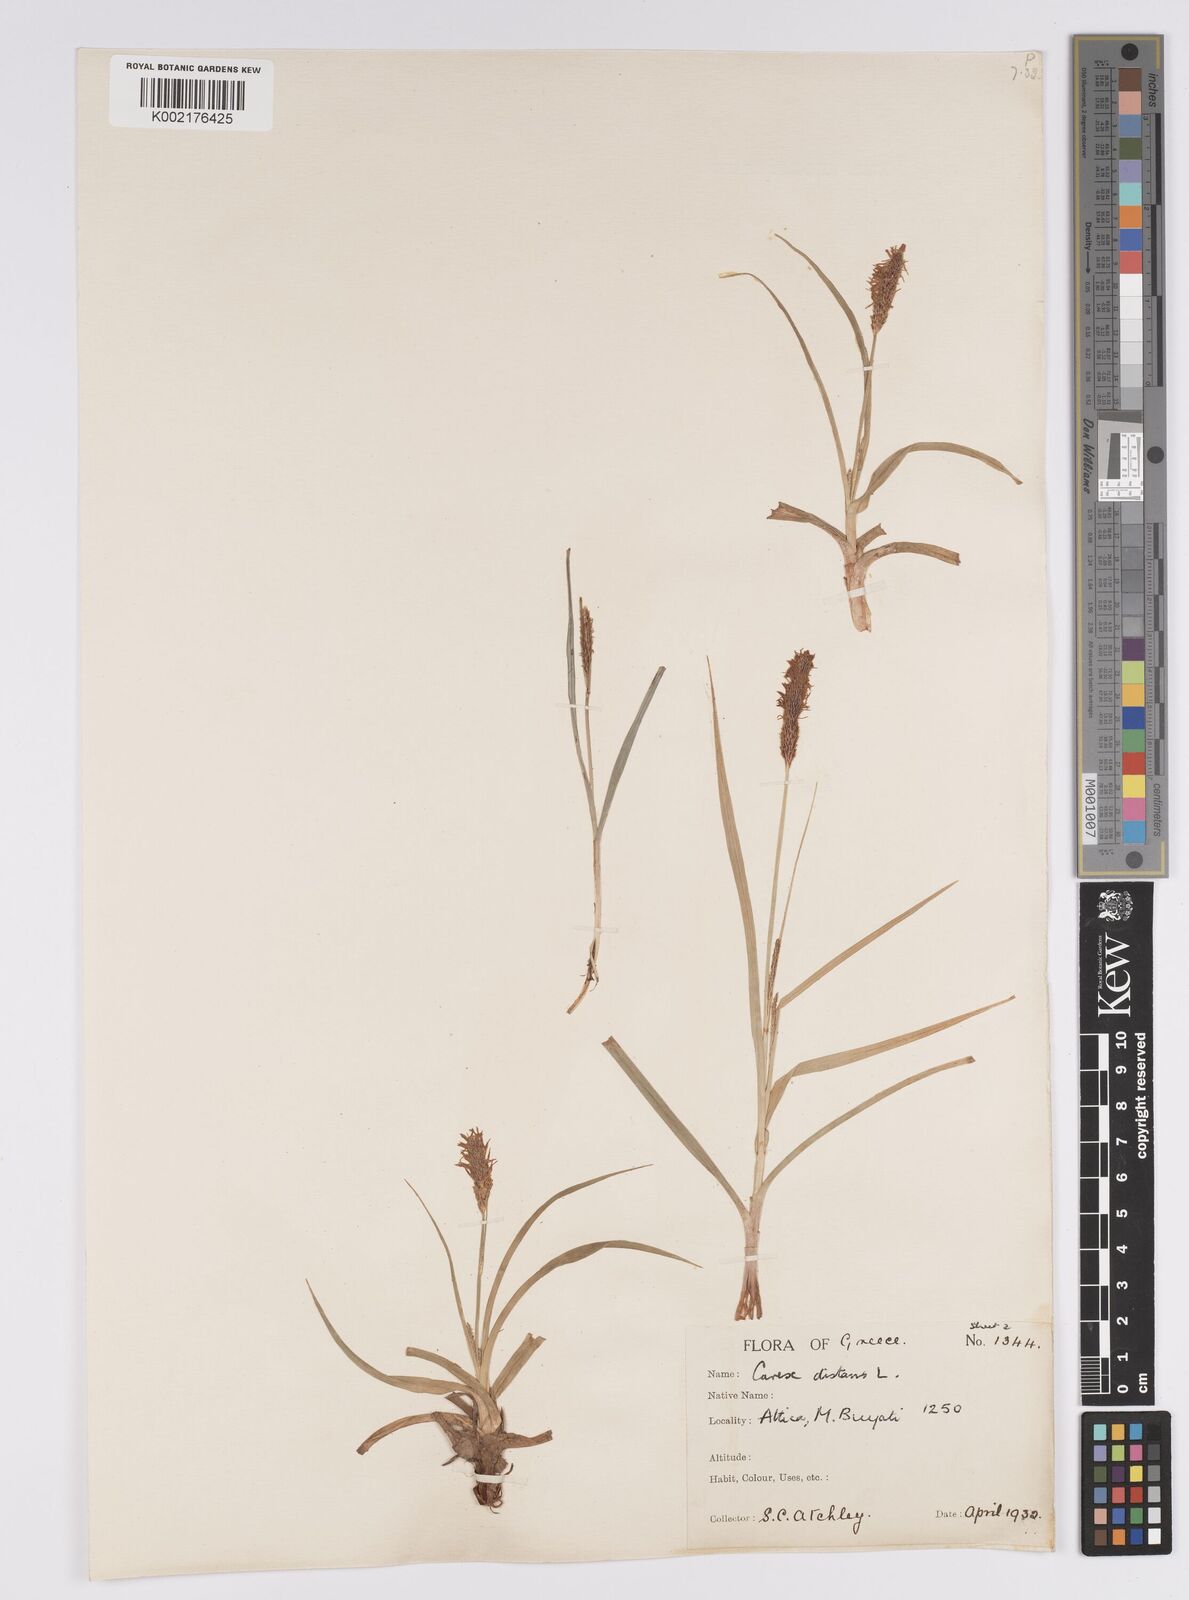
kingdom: Plantae
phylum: Tracheophyta
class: Liliopsida
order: Poales
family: Cyperaceae
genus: Carex
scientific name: Carex distans
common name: Distant sedge
